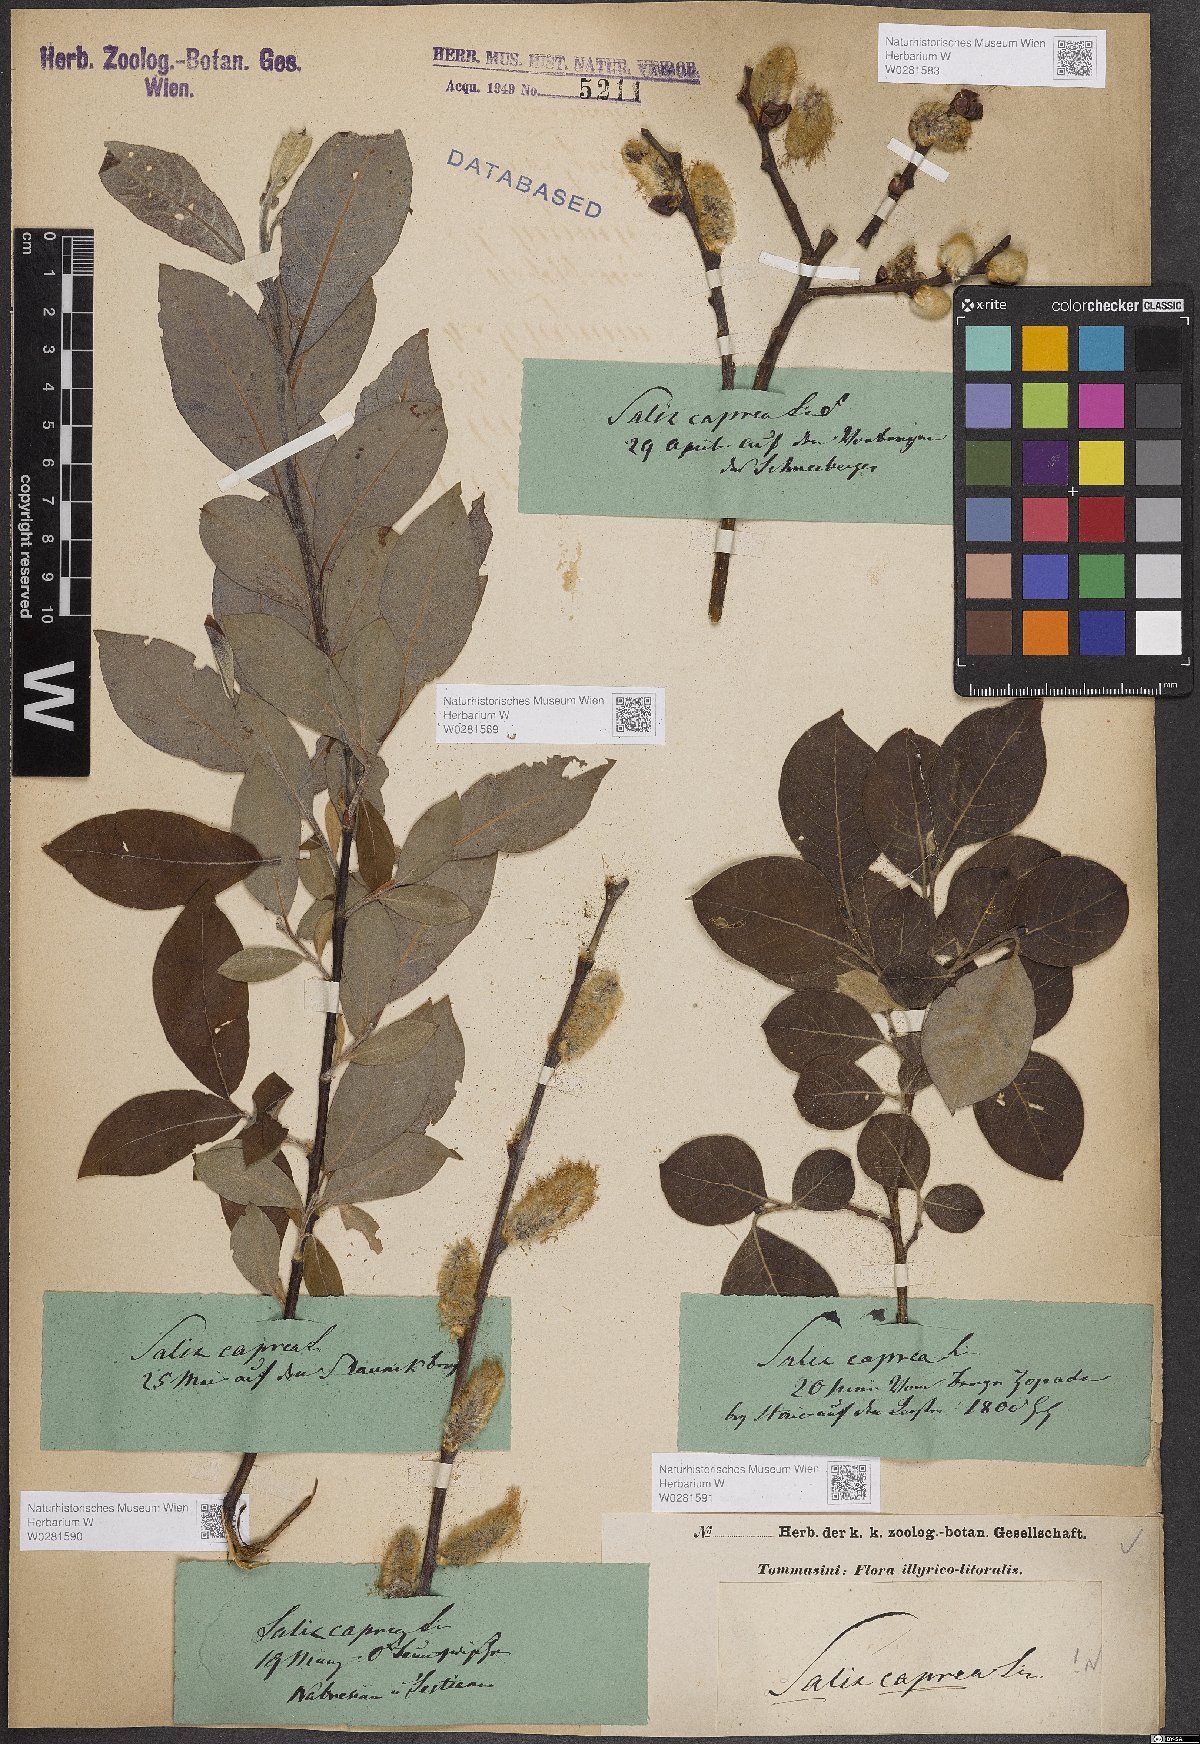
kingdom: Plantae
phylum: Tracheophyta
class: Magnoliopsida
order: Malpighiales
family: Salicaceae
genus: Salix
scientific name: Salix caprea
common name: Goat willow
